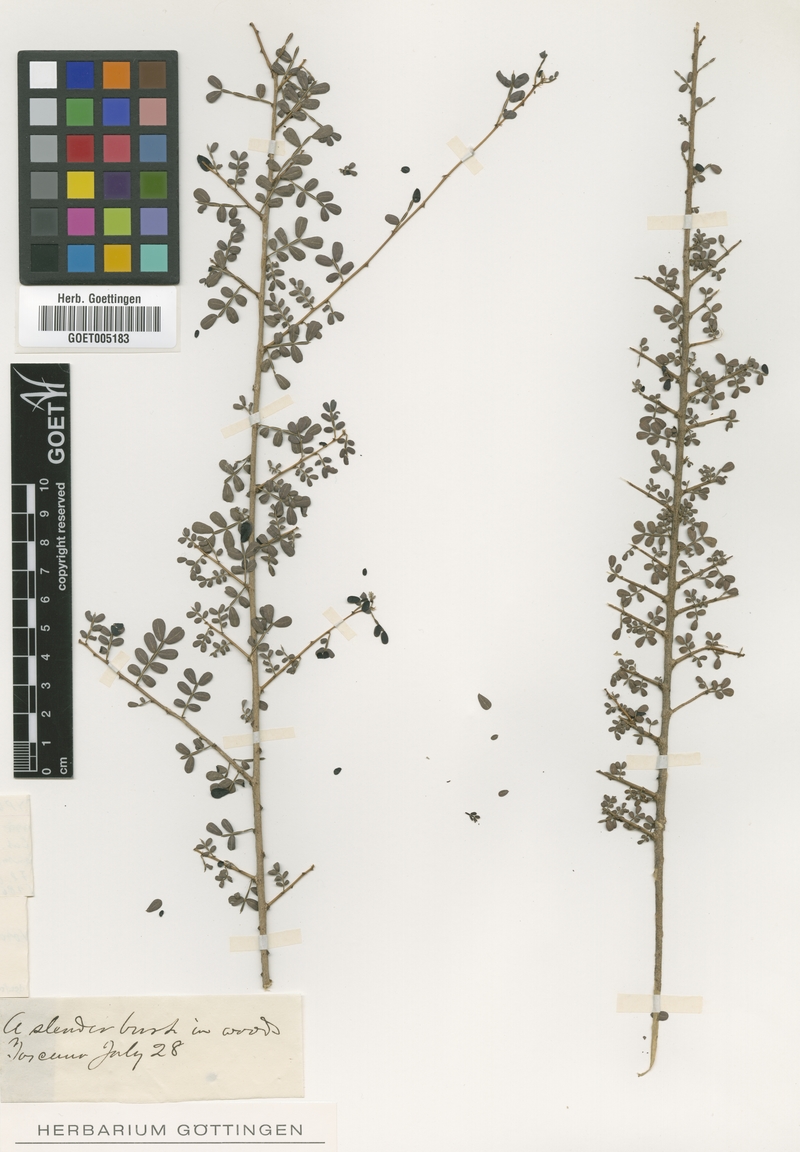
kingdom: Plantae
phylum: Tracheophyta
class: Magnoliopsida
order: Fabales
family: Fabaceae
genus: Poitea
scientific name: Poitea gracilis
